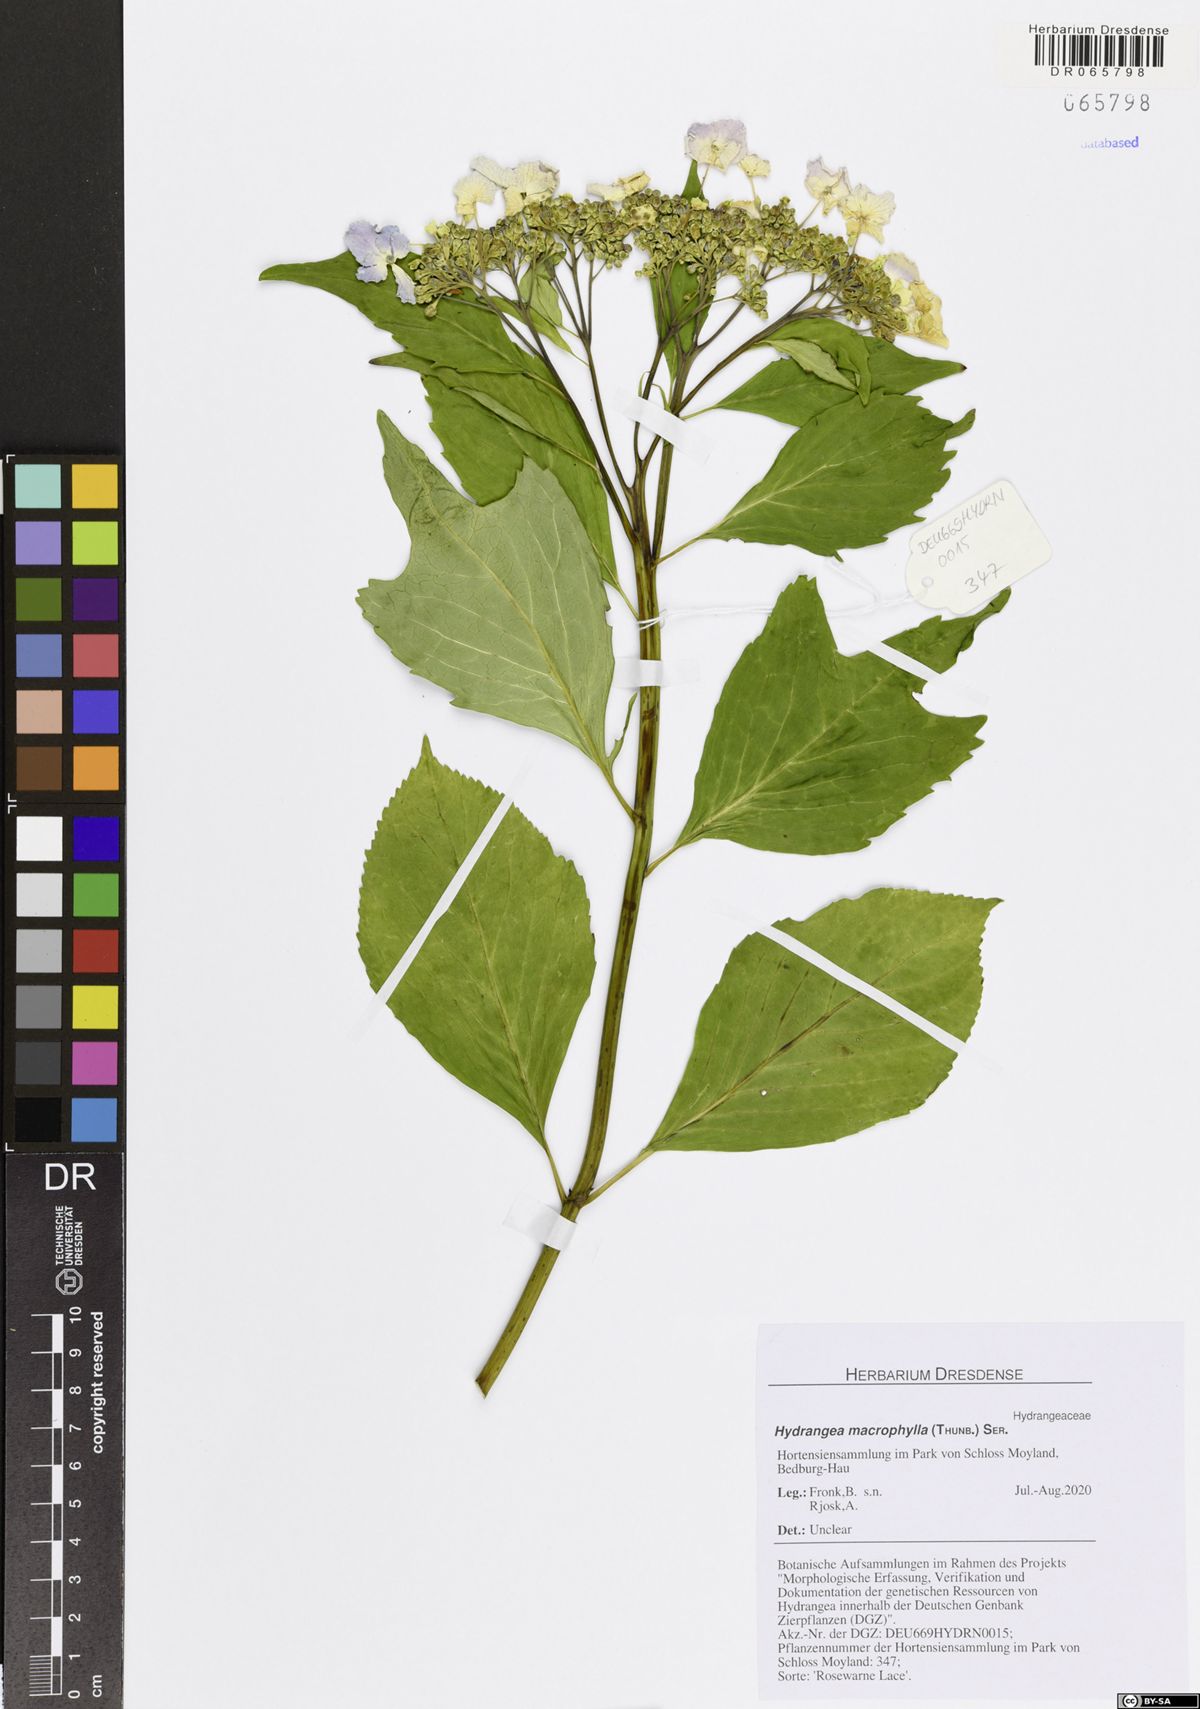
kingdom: Plantae
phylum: Tracheophyta
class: Magnoliopsida
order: Cornales
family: Hydrangeaceae
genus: Hydrangea
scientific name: Hydrangea macrophylla
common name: Hydrangea
